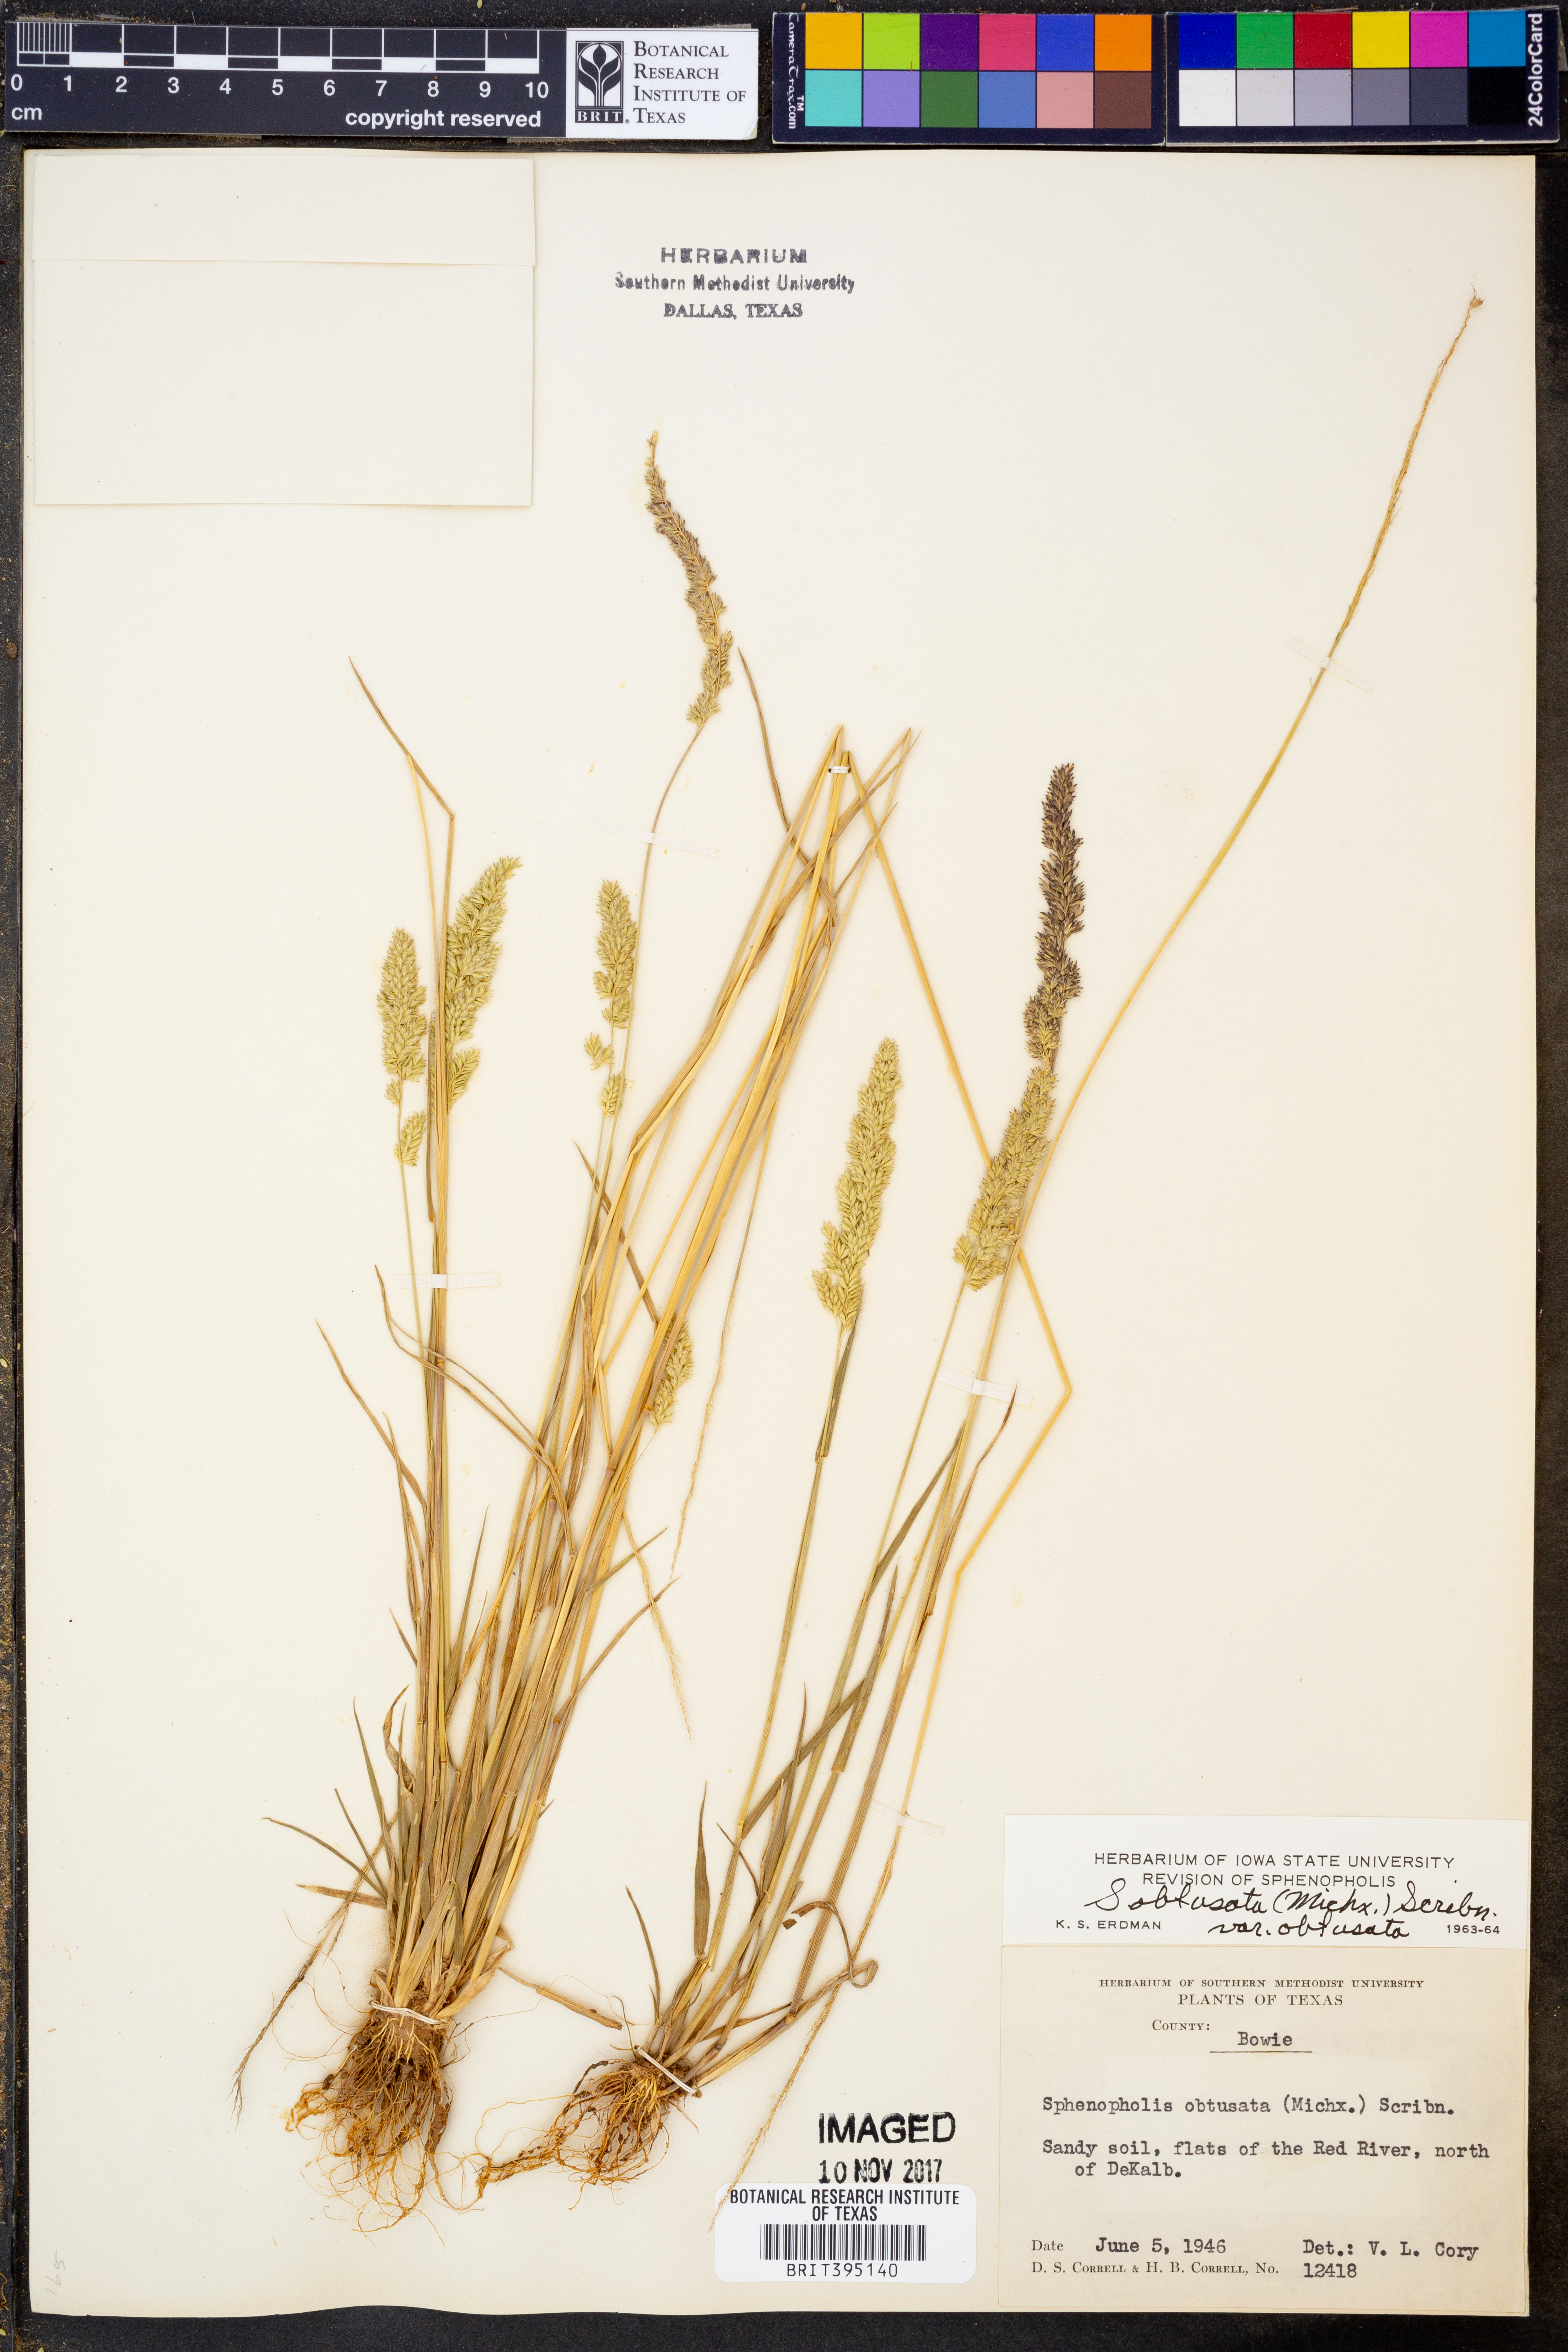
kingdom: Plantae
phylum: Tracheophyta
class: Liliopsida
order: Poales
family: Poaceae
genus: Sphenopholis
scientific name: Sphenopholis obtusata
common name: Prairie grass
